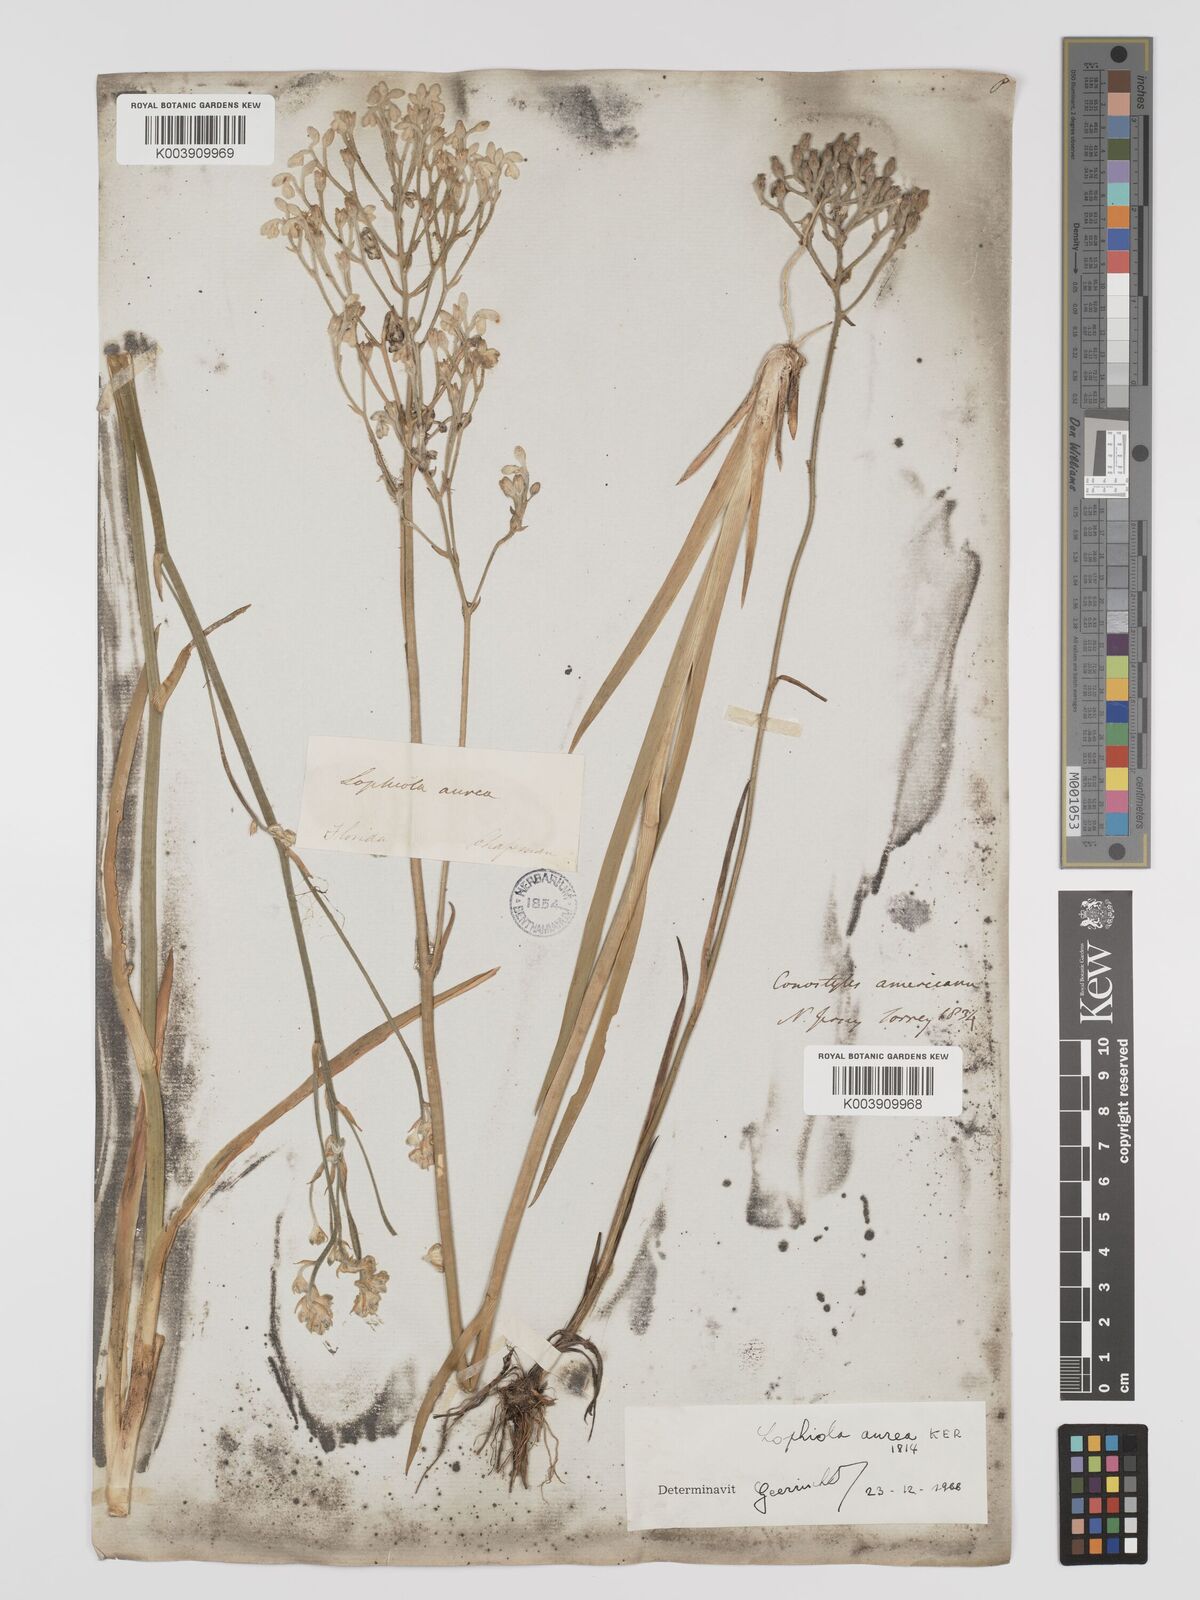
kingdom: Plantae
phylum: Tracheophyta
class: Liliopsida
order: Dioscoreales
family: Nartheciaceae
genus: Lophiola
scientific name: Lophiola aurea
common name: Golden-crest
